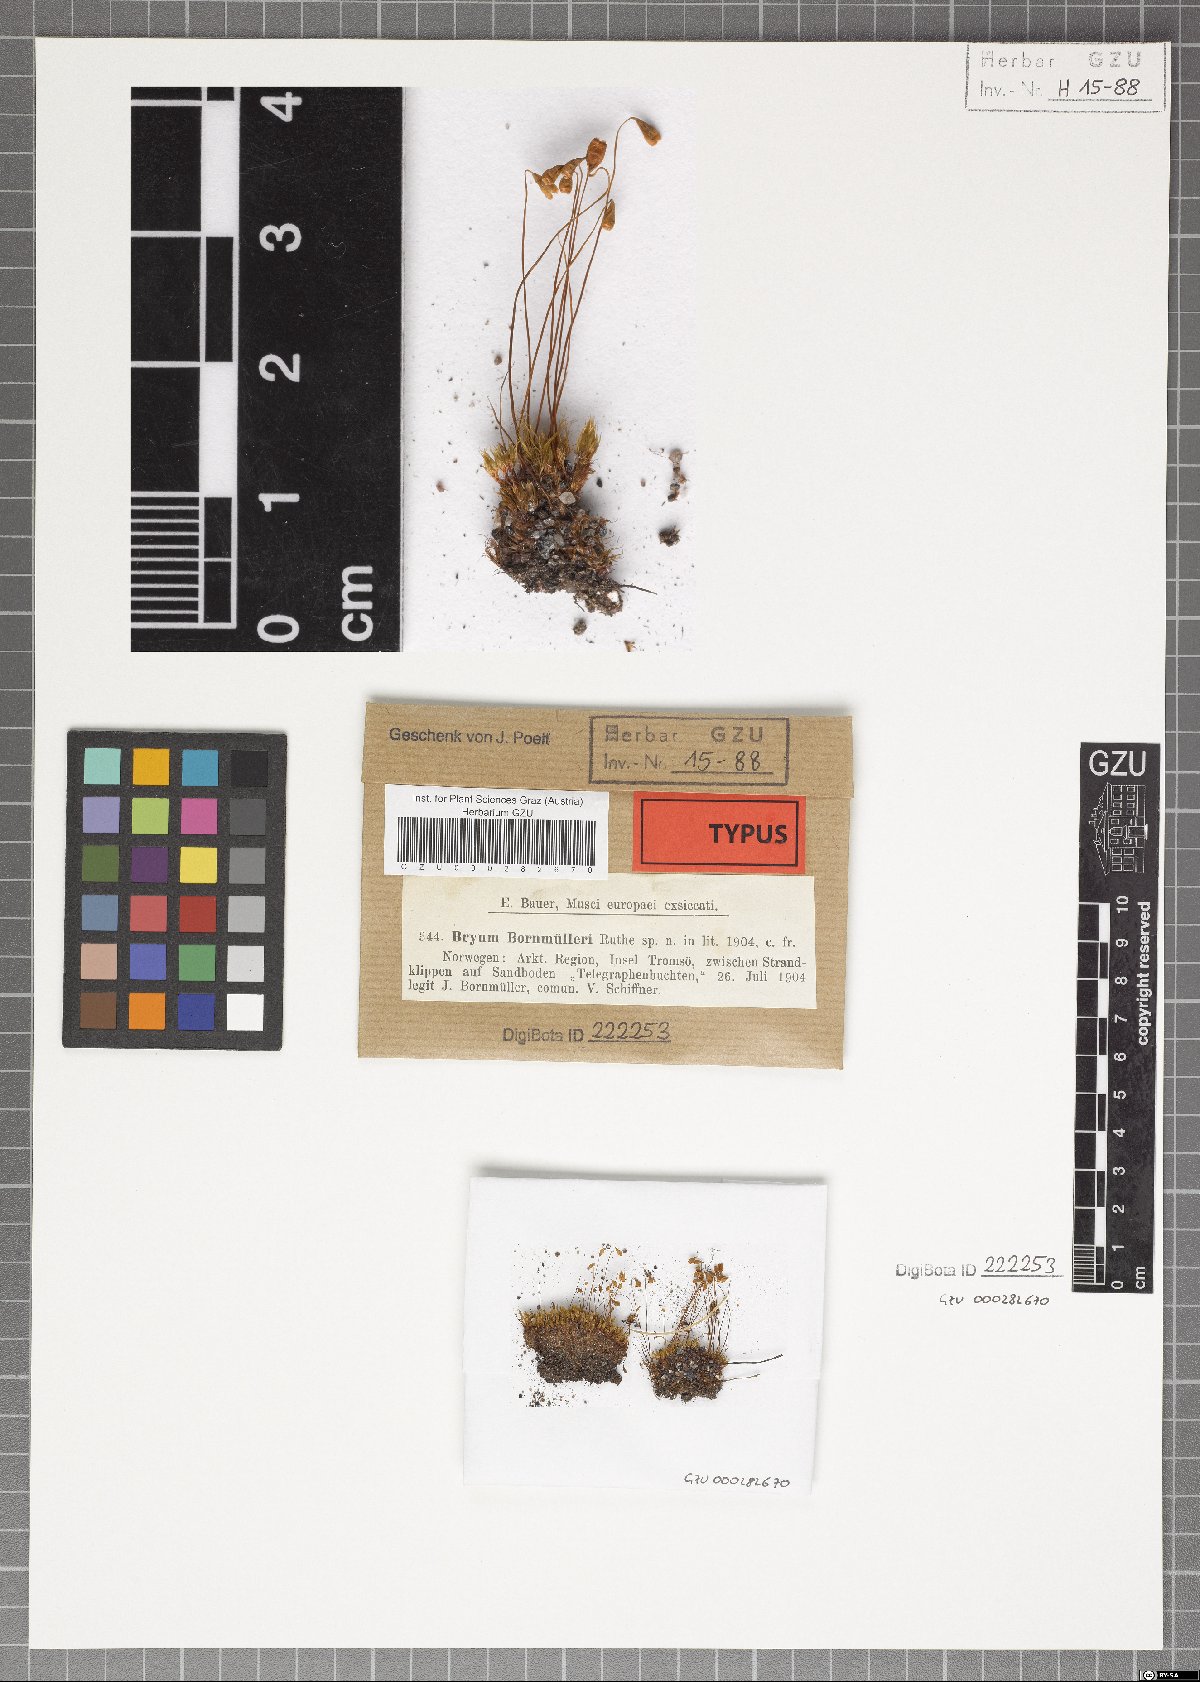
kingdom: Plantae
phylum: Bryophyta
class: Bryopsida
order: Bryales
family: Bryaceae
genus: Ptychostomum
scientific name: Ptychostomum warneum
